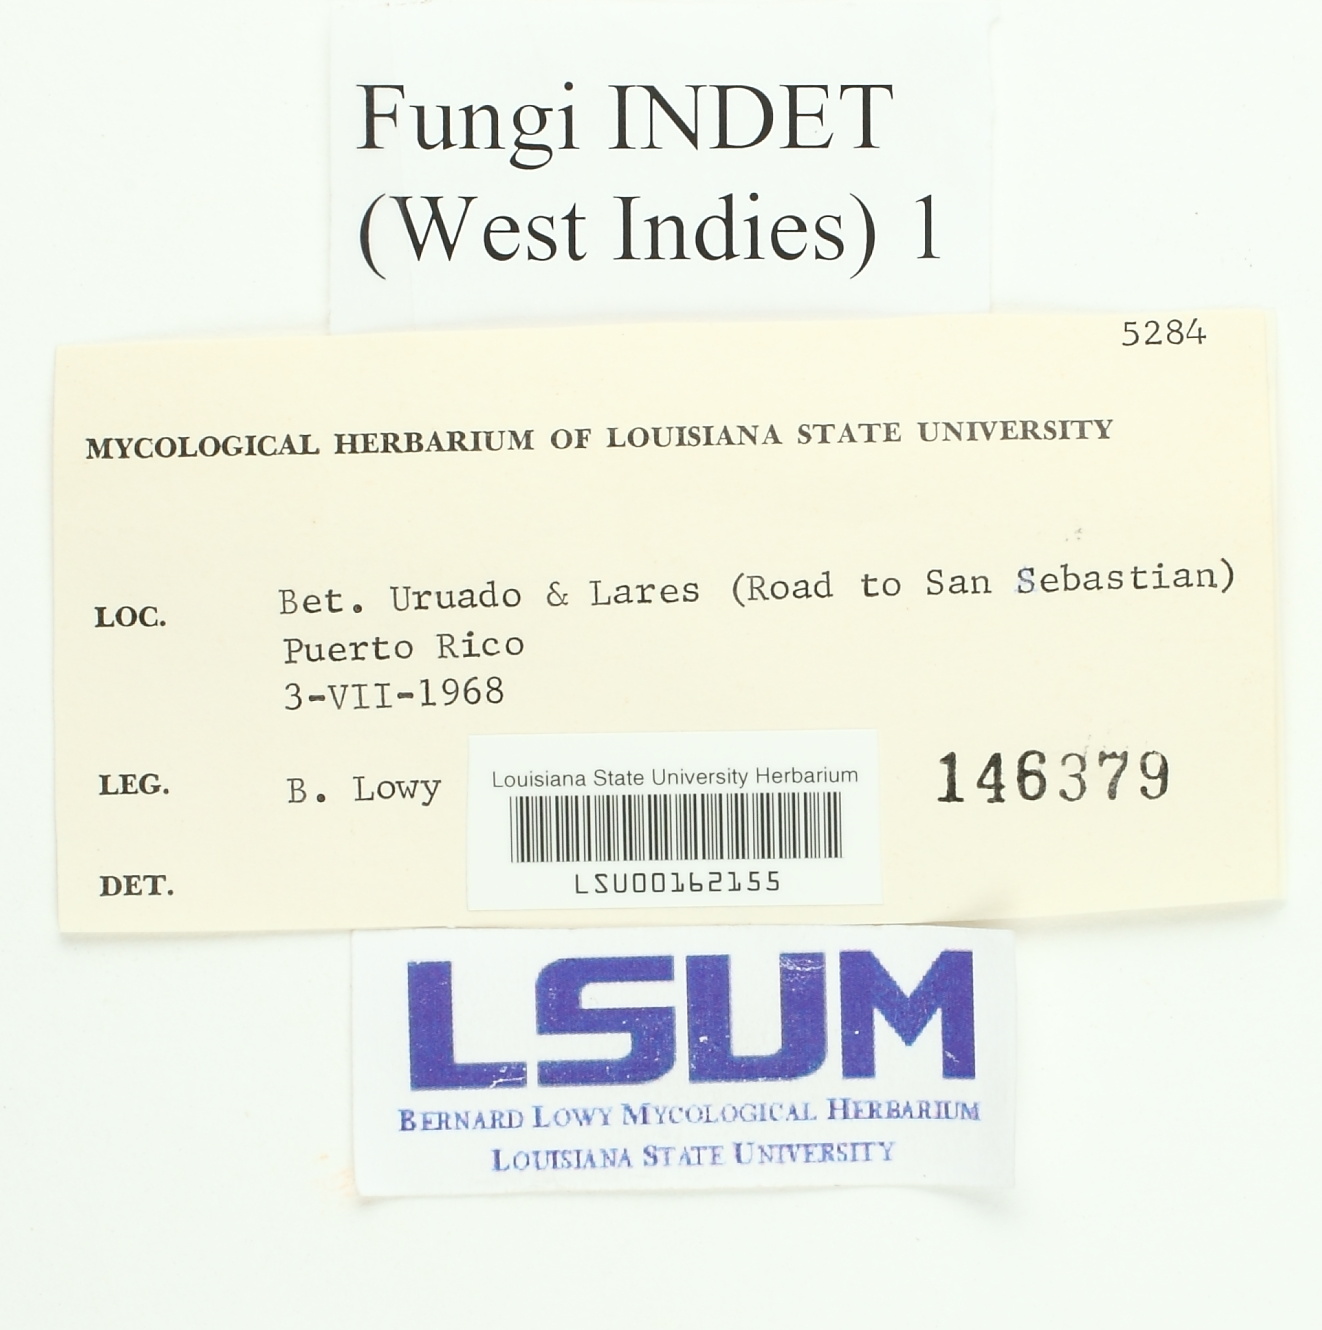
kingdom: Fungi
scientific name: Fungi
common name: Fungi
